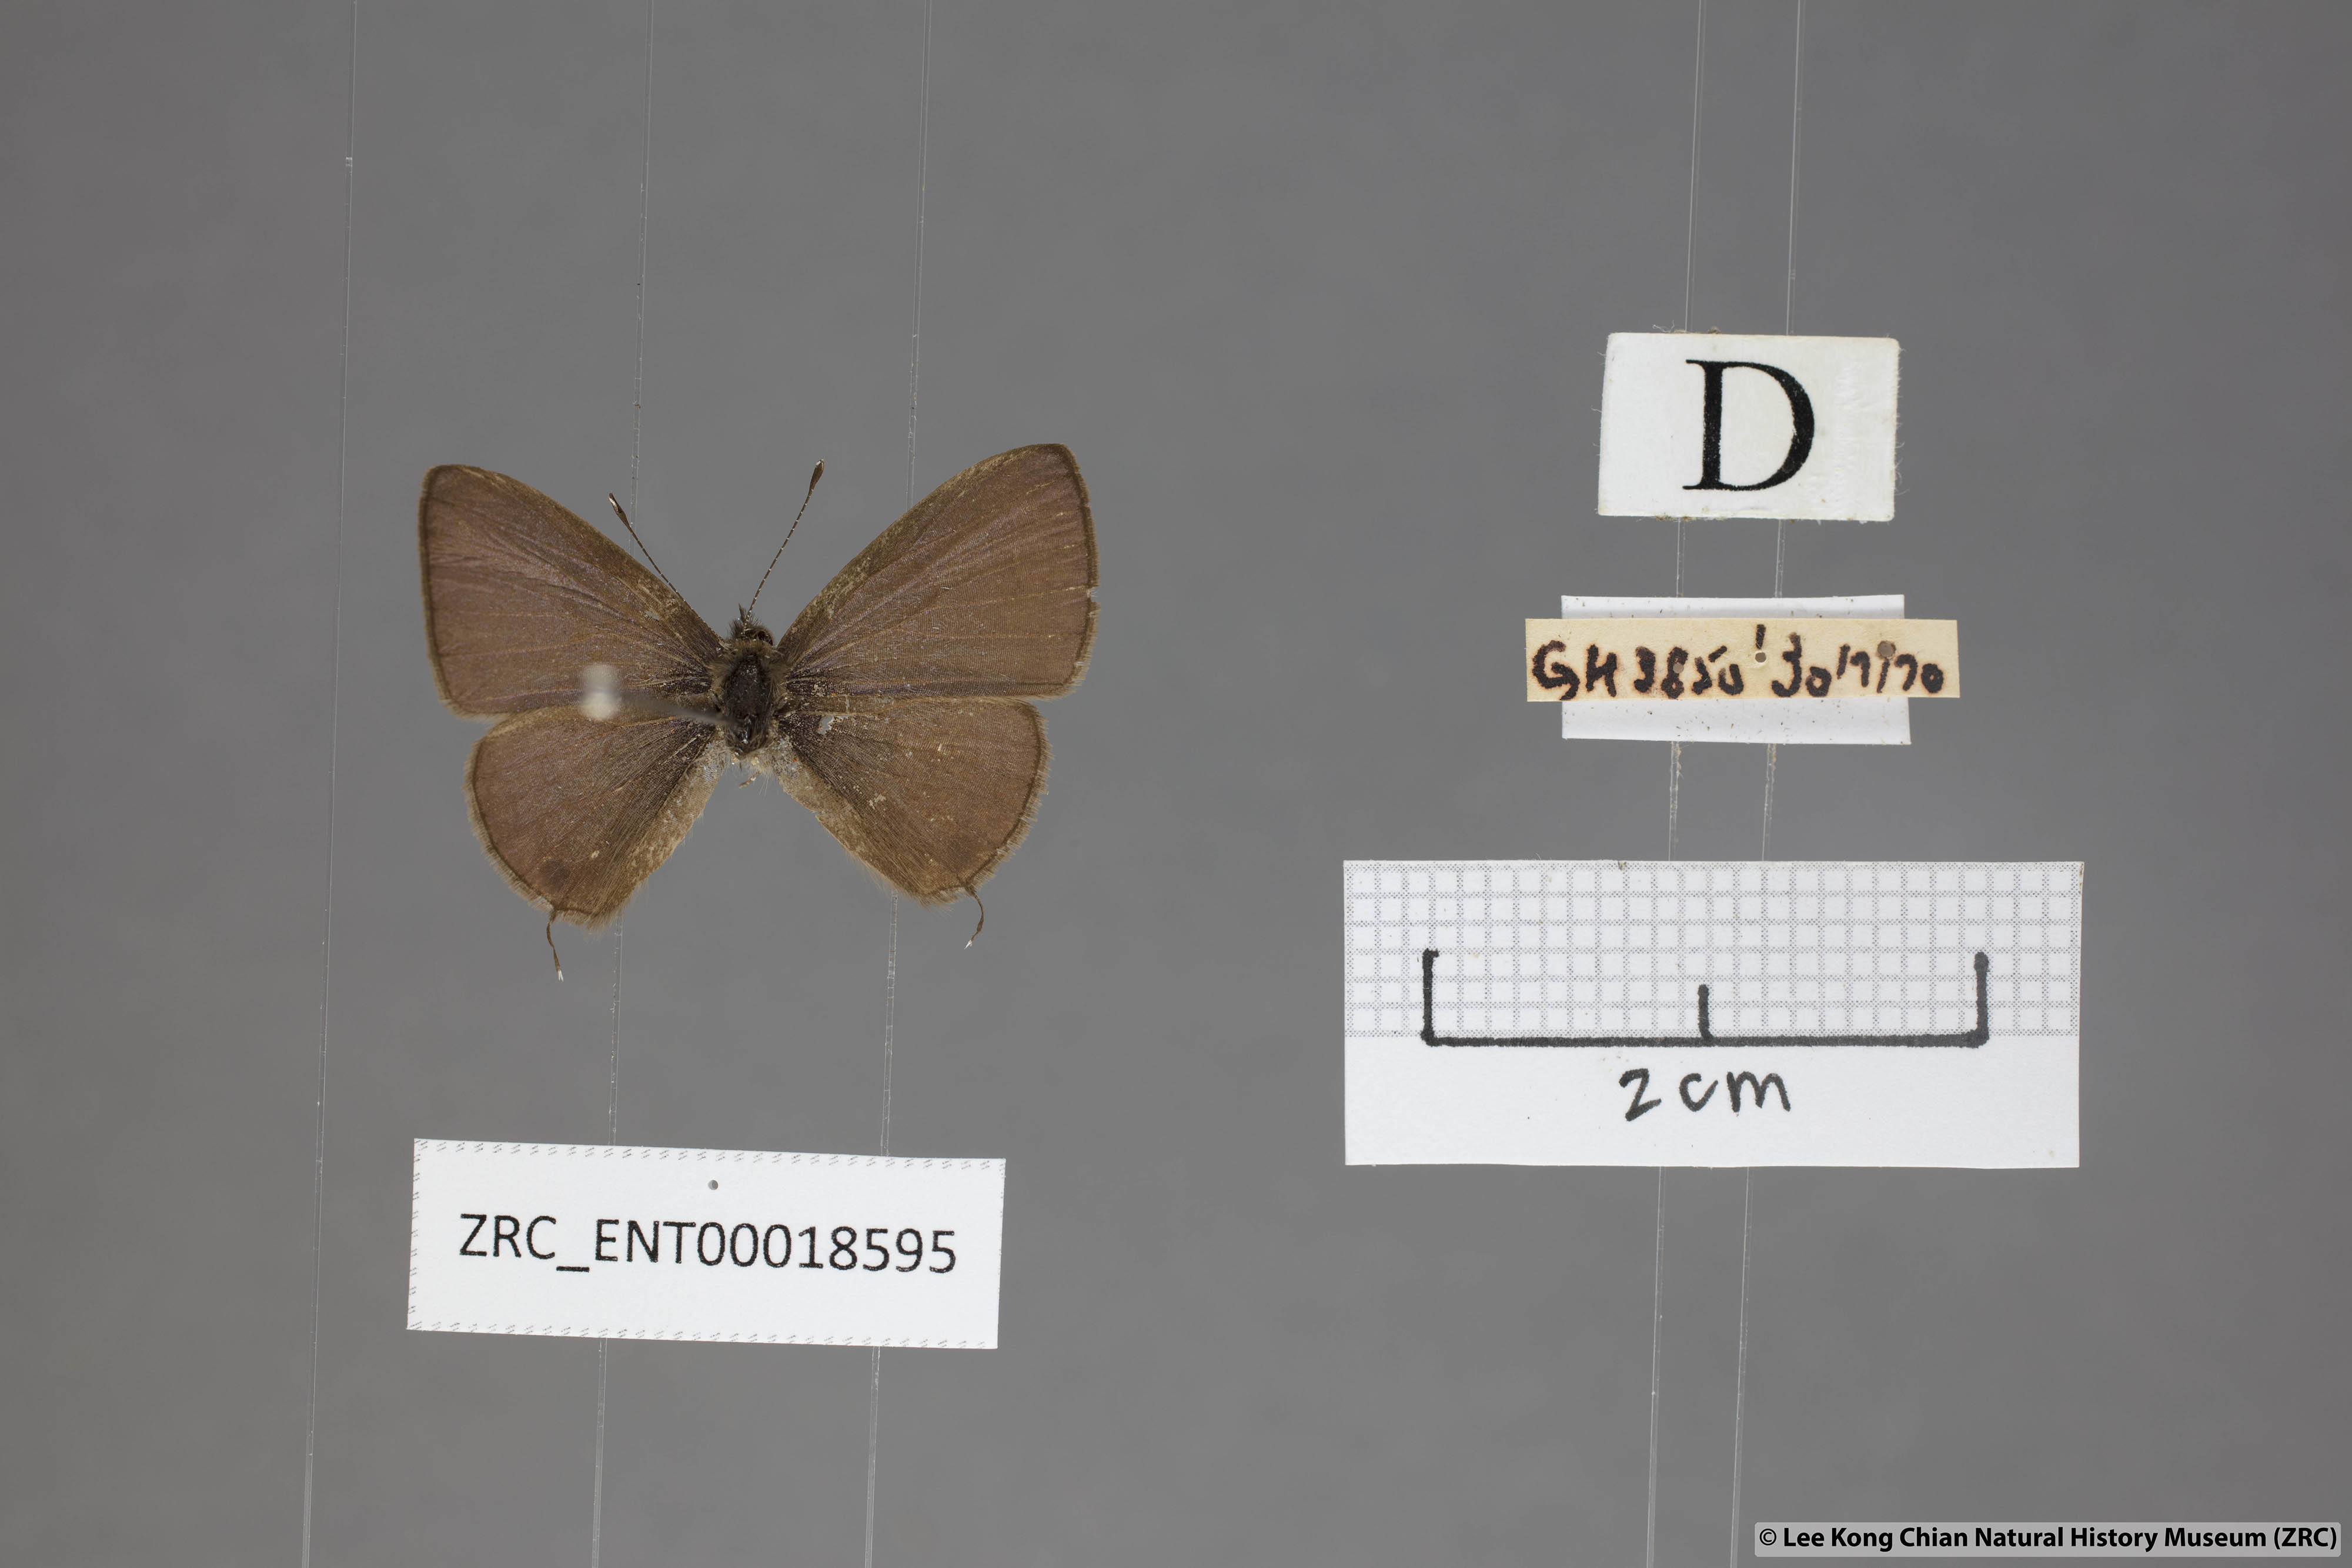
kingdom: Animalia
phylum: Arthropoda
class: Insecta
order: Lepidoptera
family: Lycaenidae
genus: Prosotas
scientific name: Prosotas gracilis
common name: Dark-based lineblue
